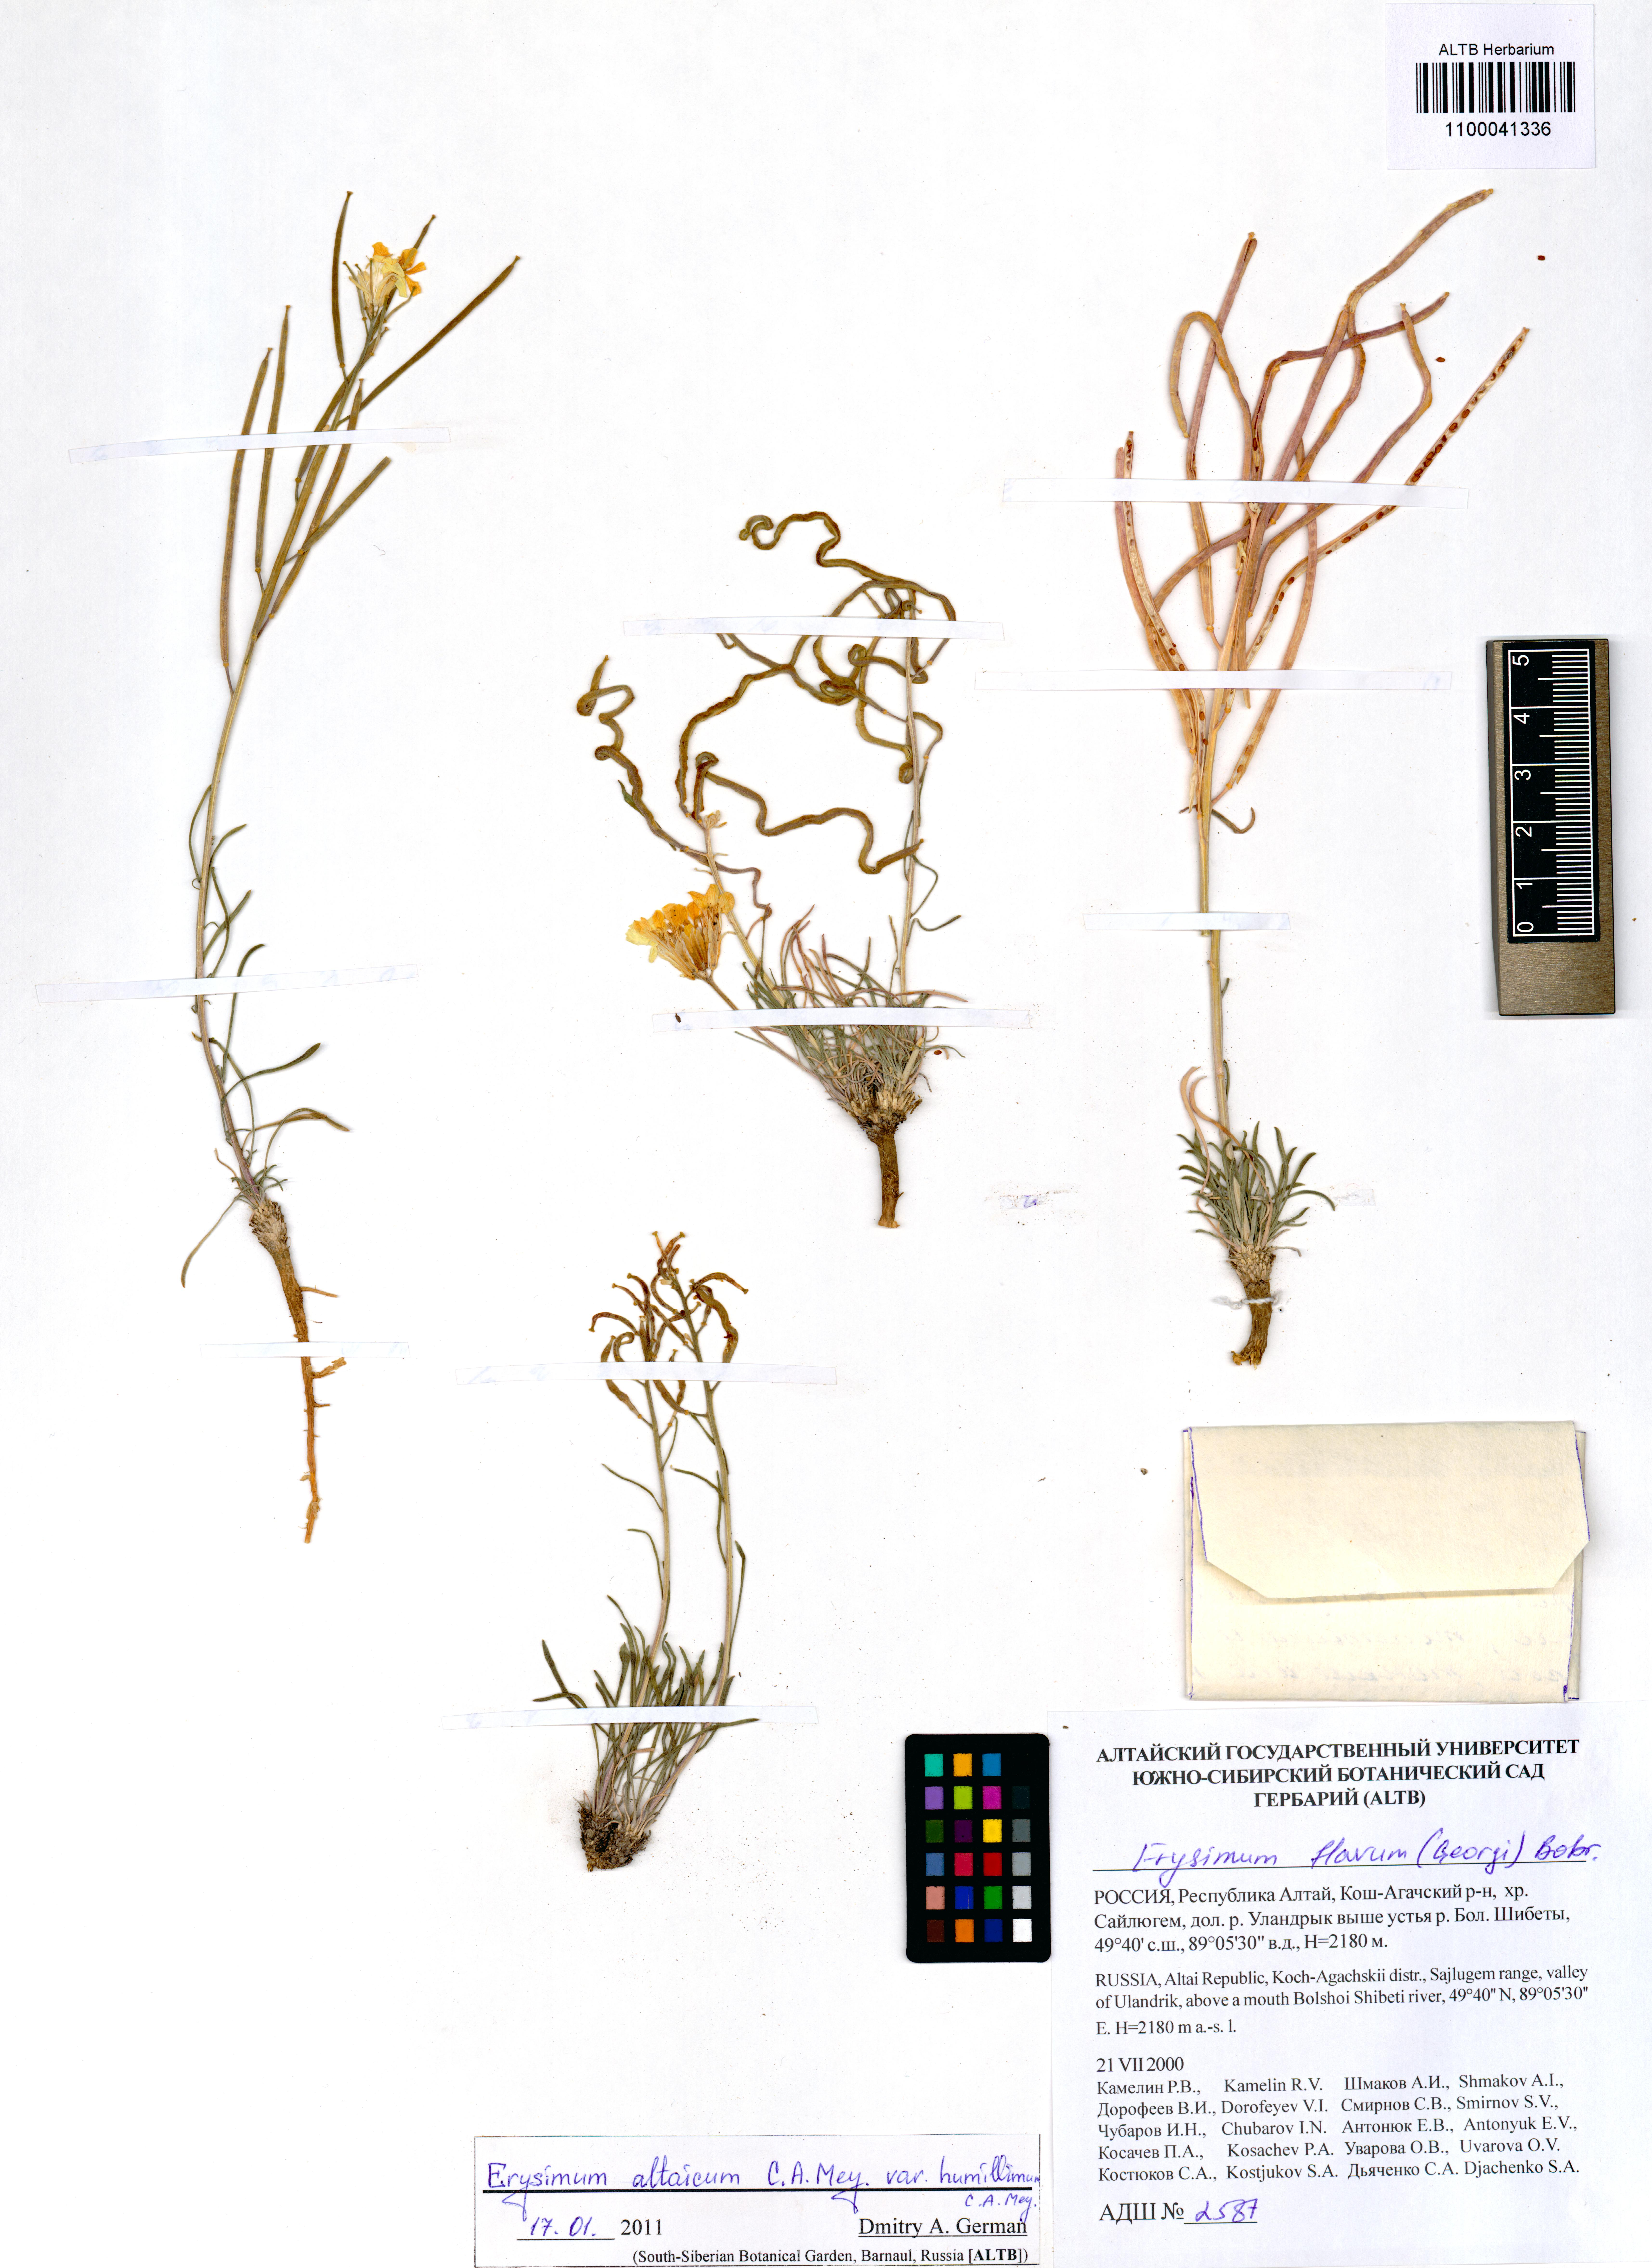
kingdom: Plantae
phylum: Tracheophyta
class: Magnoliopsida
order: Brassicales
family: Brassicaceae
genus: Erysimum
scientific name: Erysimum altaicum
